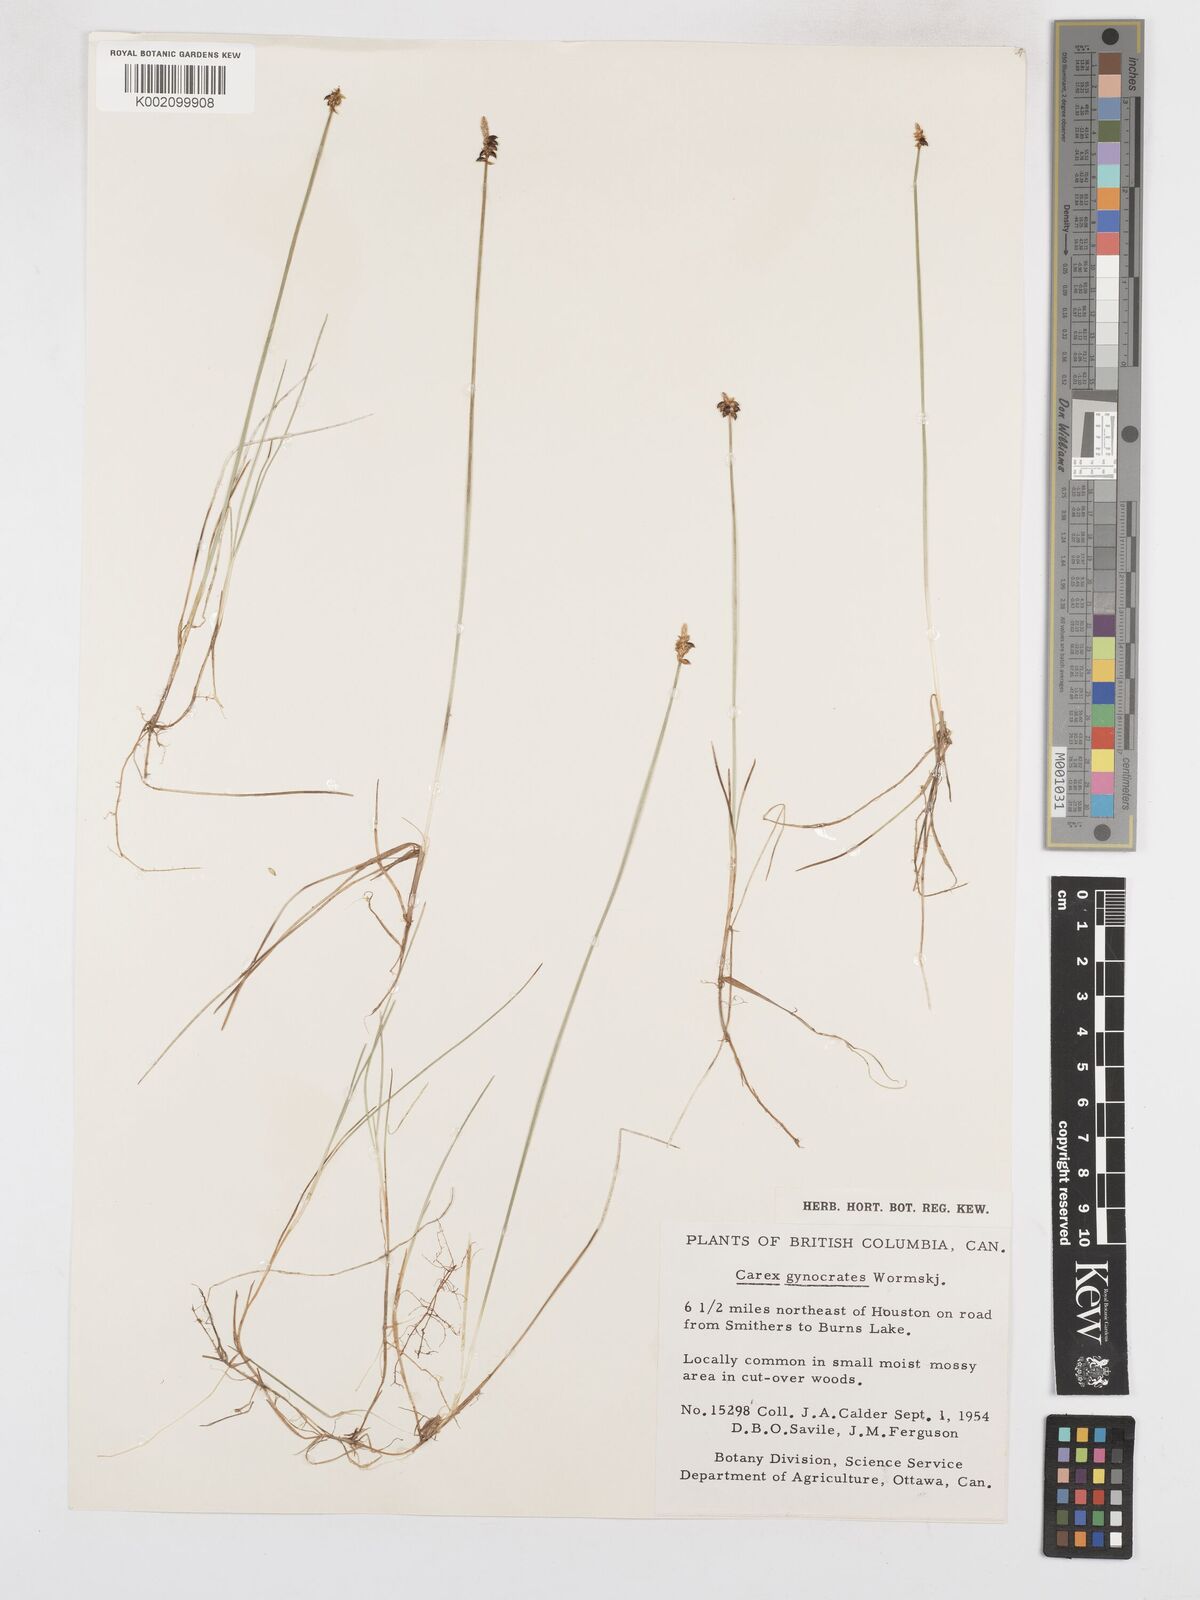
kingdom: Plantae
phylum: Tracheophyta
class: Liliopsida
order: Poales
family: Cyperaceae
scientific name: Cyperaceae
